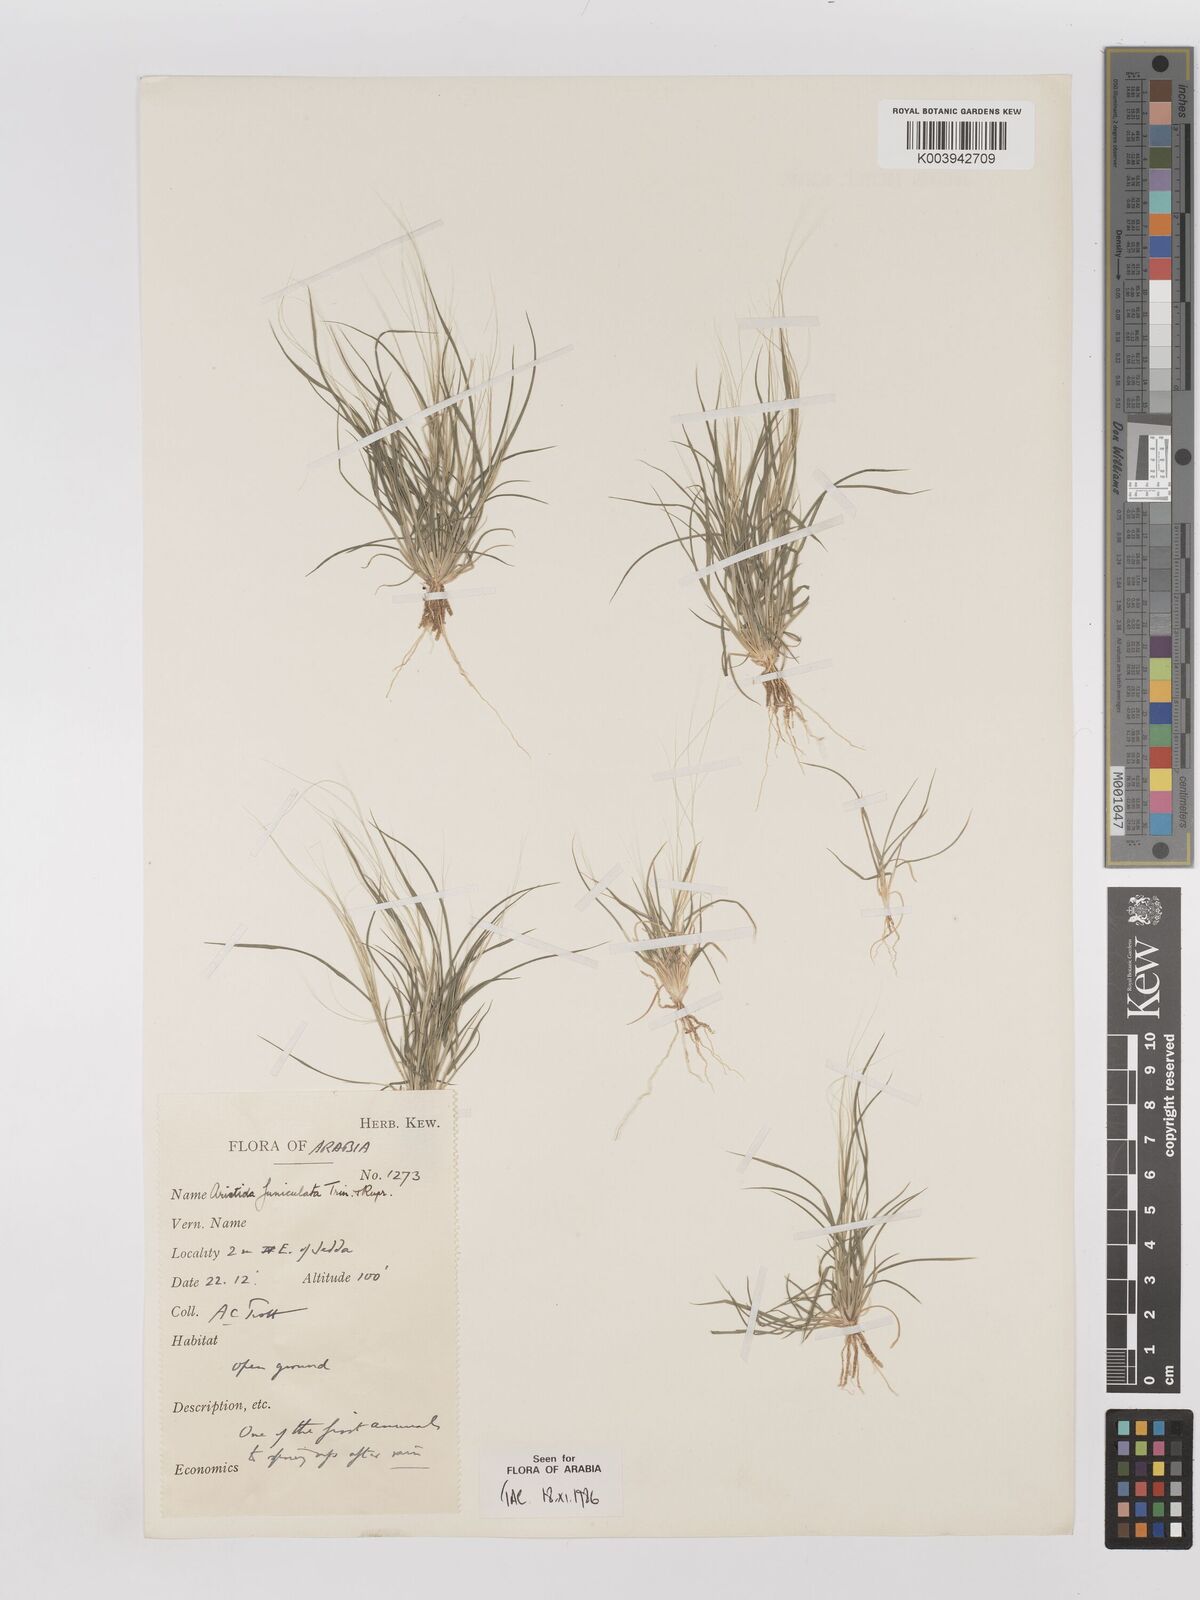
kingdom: Plantae
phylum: Tracheophyta
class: Liliopsida
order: Poales
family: Poaceae
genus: Aristida
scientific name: Aristida funiculata
